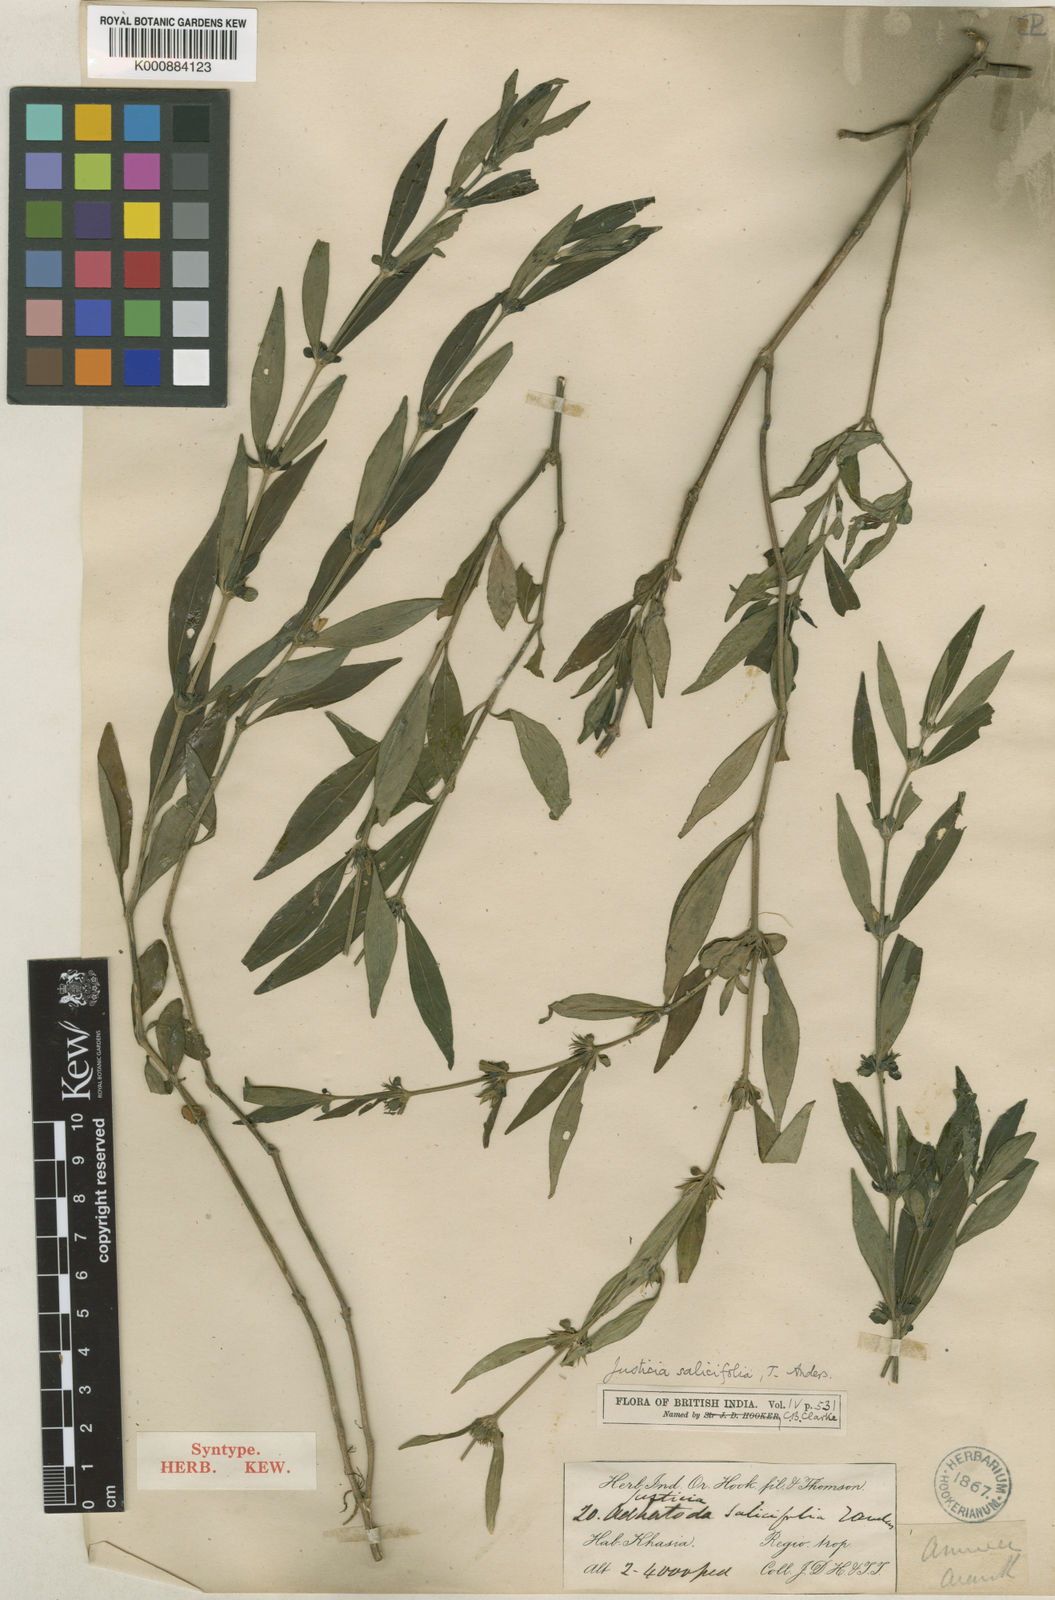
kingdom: Plantae
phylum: Tracheophyta
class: Magnoliopsida
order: Lamiales
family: Acanthaceae
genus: Justicia
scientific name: Justicia barapaniensis
